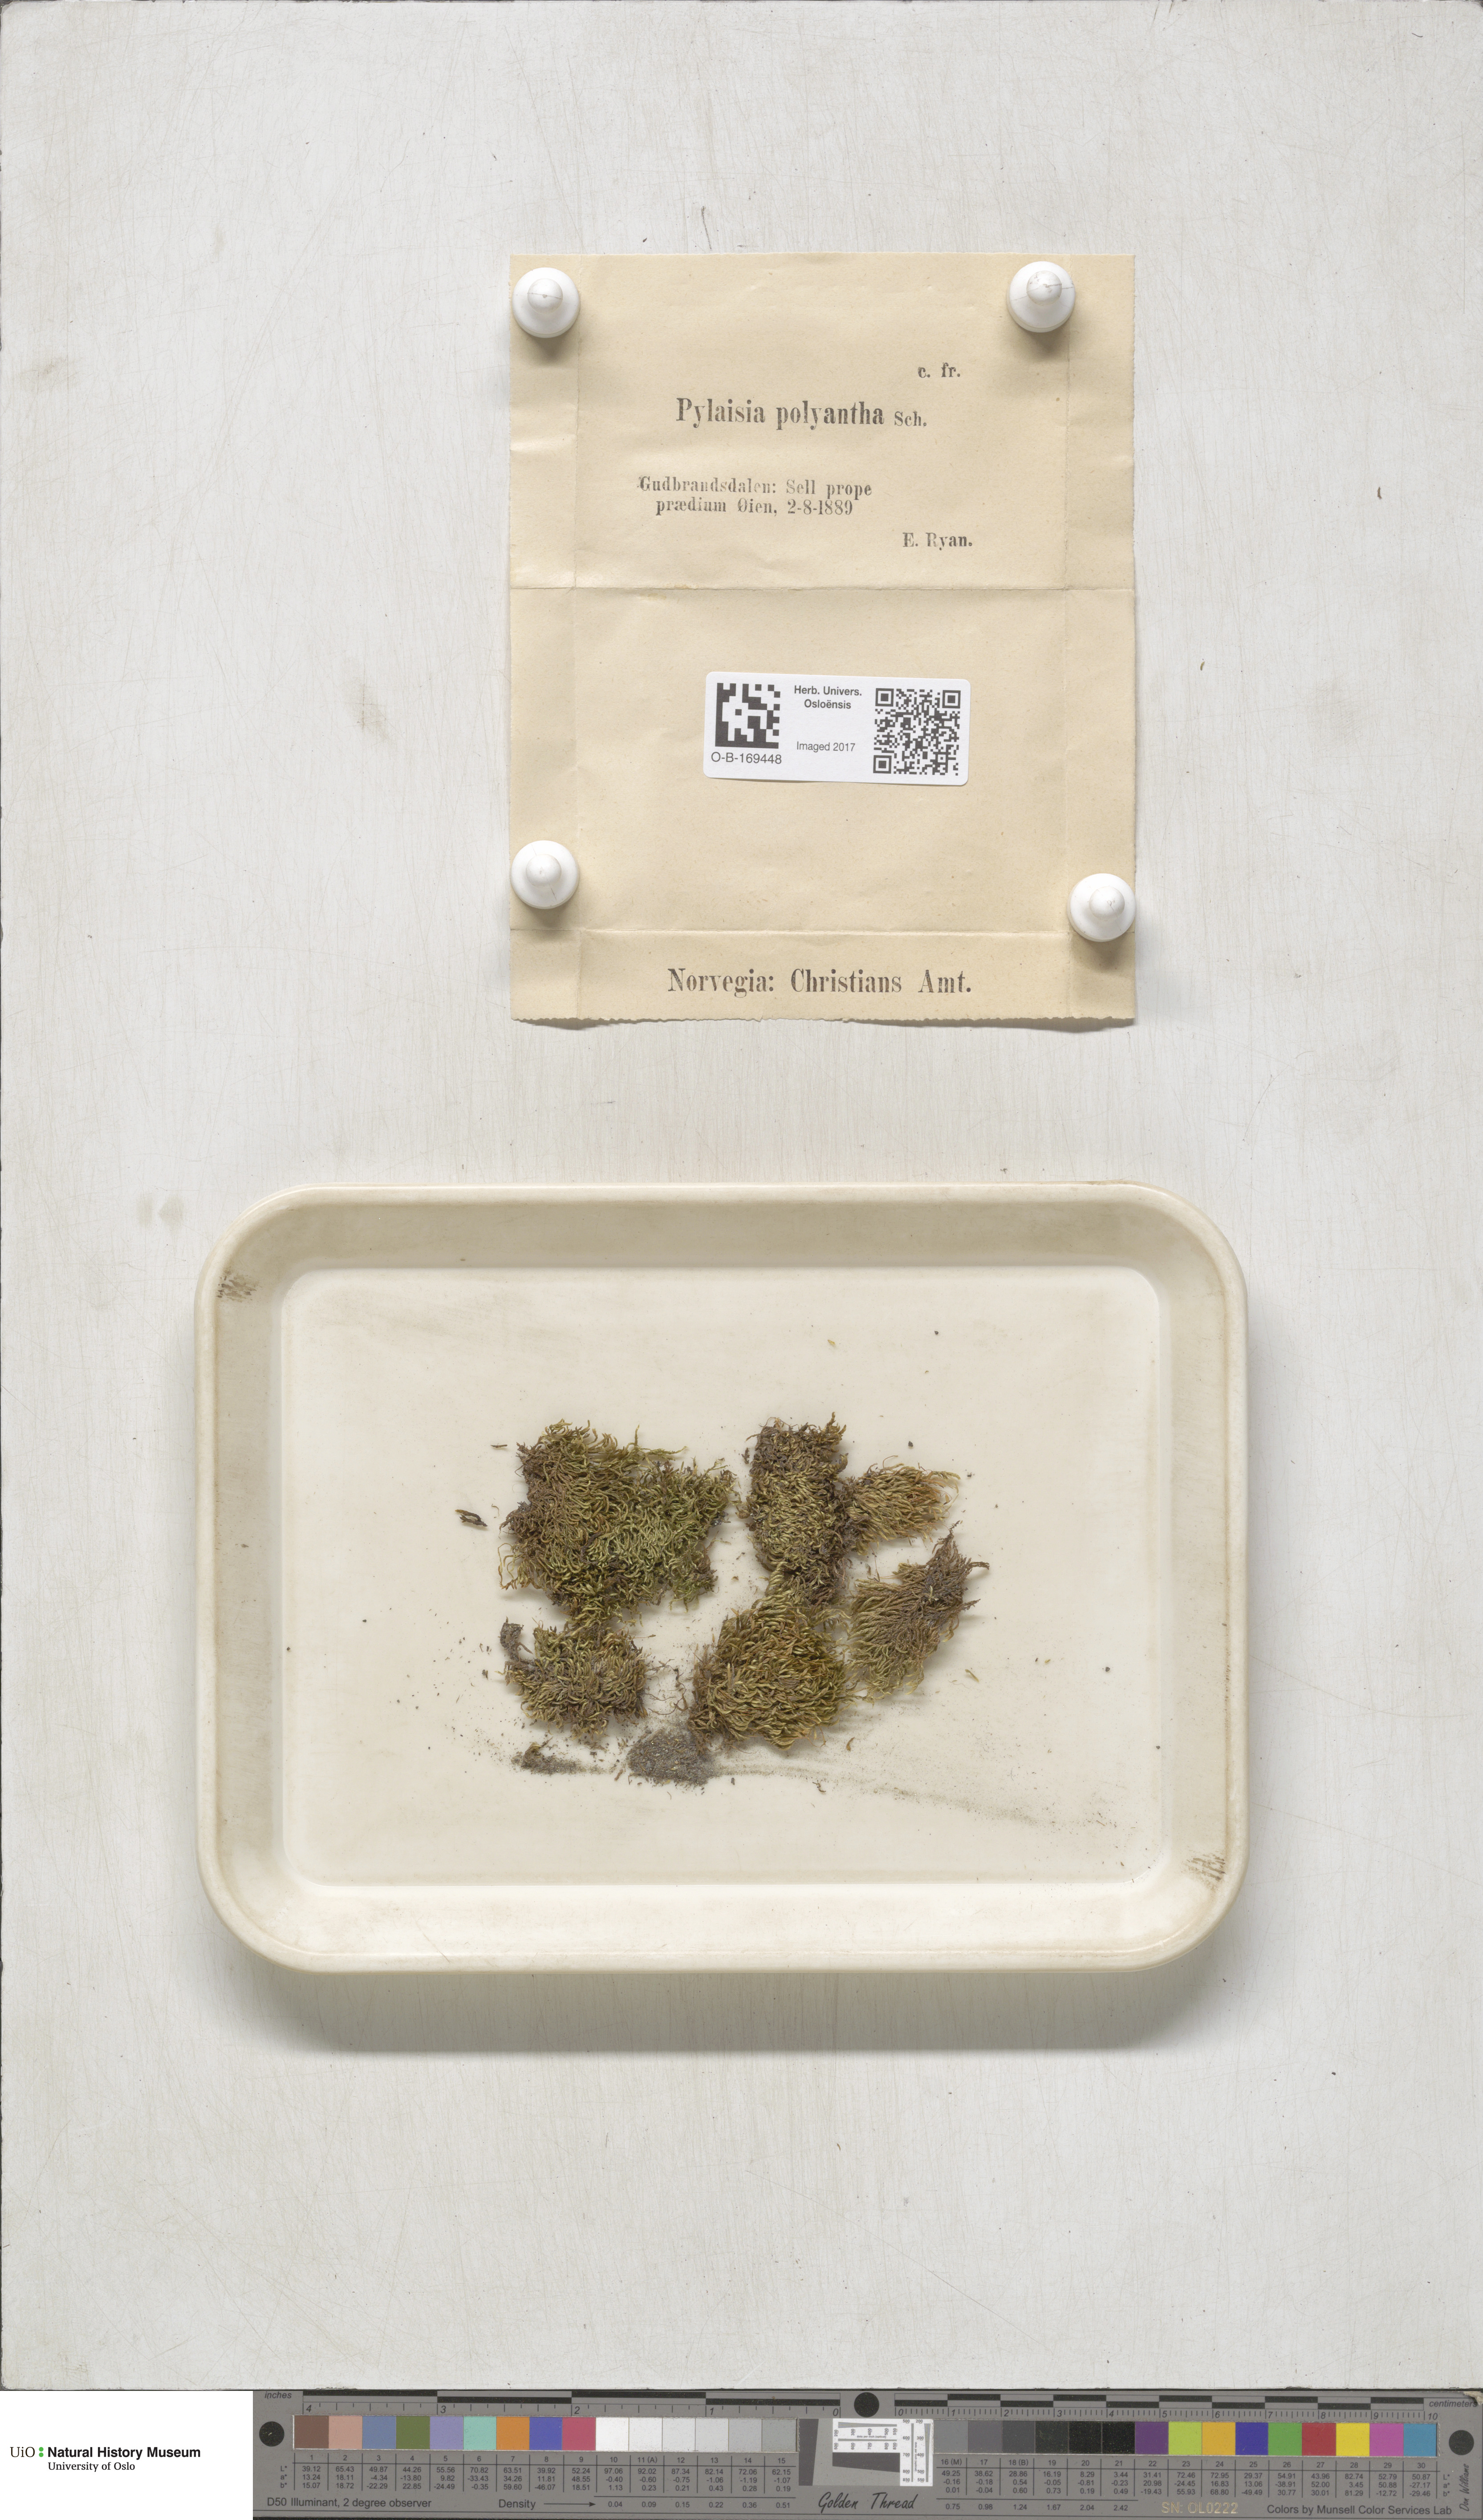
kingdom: Plantae
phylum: Bryophyta
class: Bryopsida
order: Hypnales
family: Pylaisiaceae
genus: Pylaisia
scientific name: Pylaisia polyantha
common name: Many-flowered leskea
